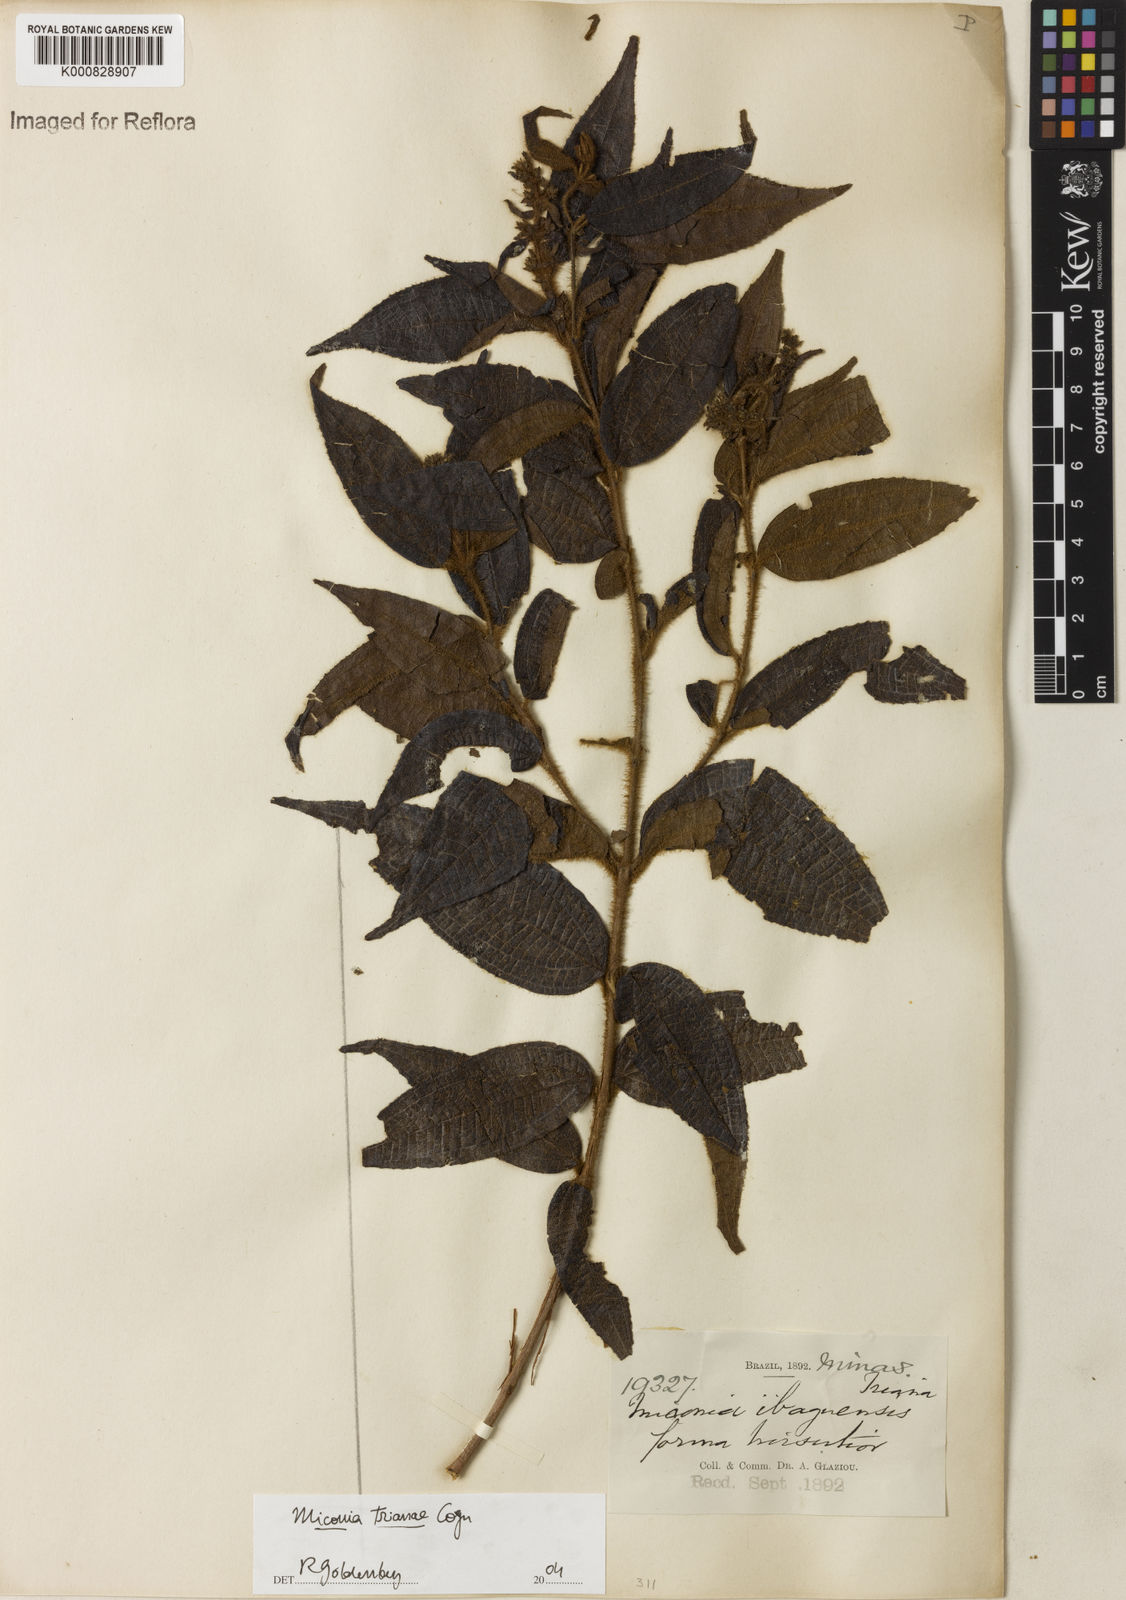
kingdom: Plantae
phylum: Tracheophyta
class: Magnoliopsida
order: Myrtales
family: Melastomataceae
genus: Miconia
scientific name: Miconia trianae
